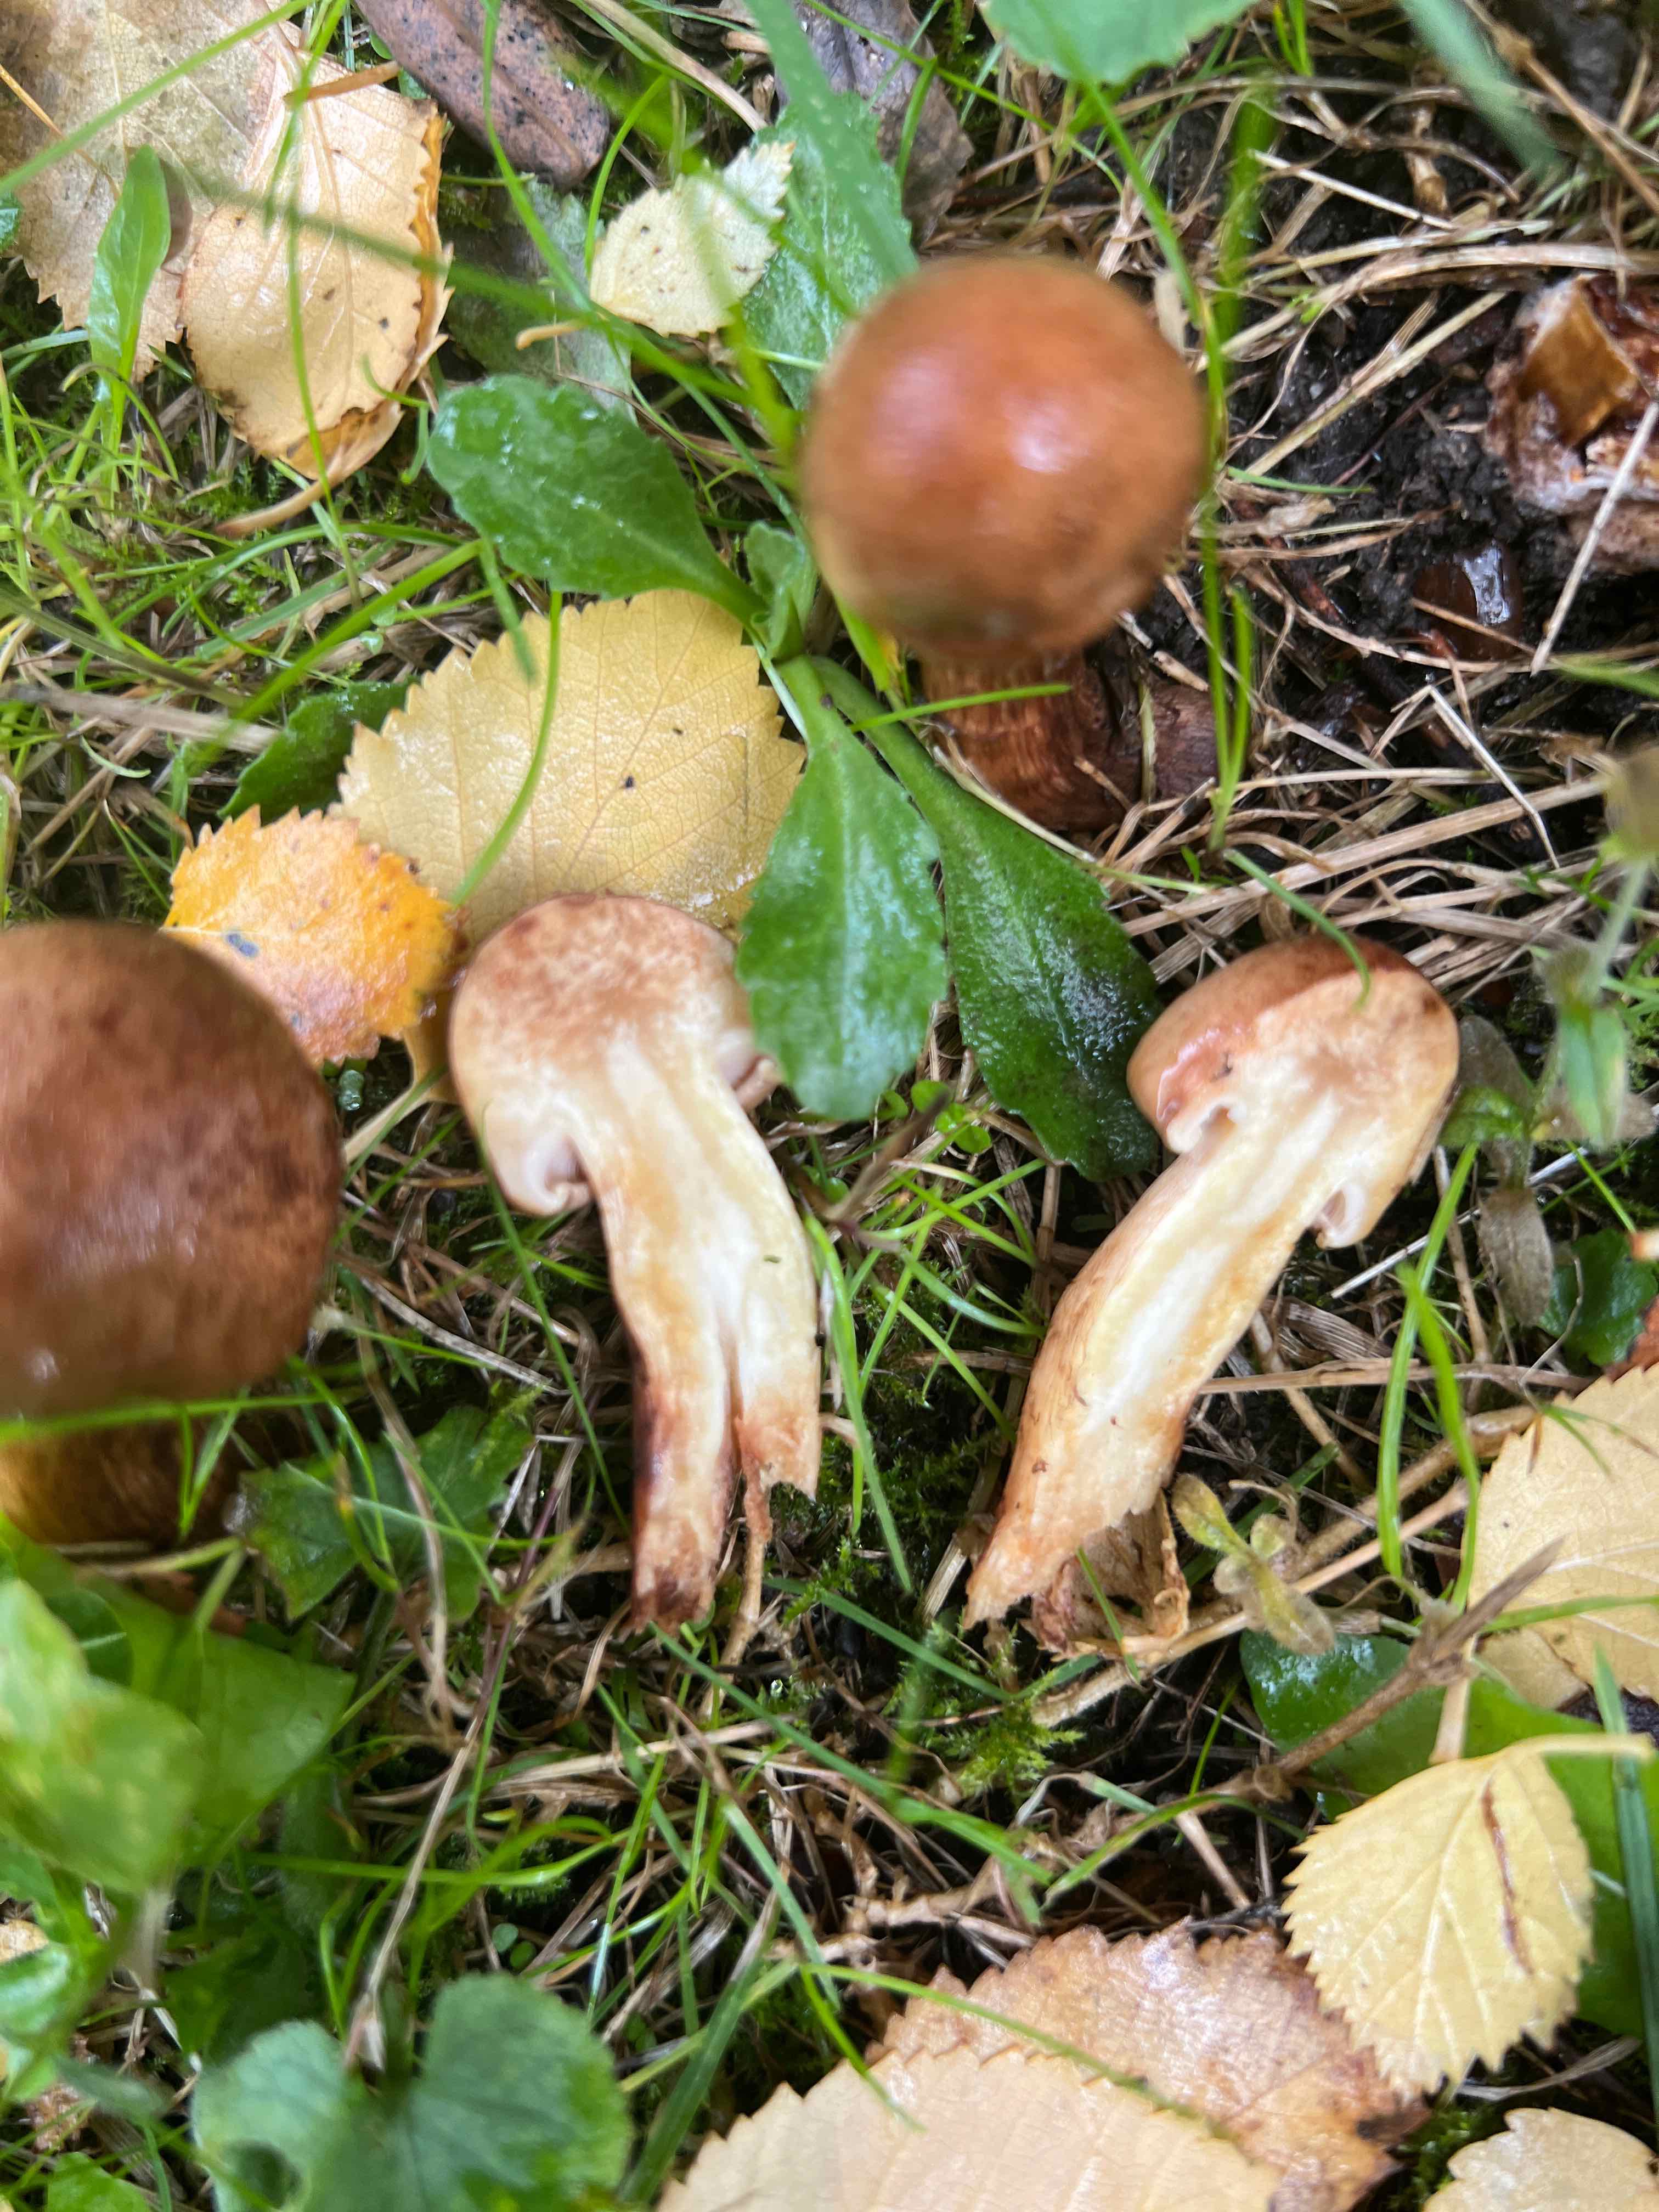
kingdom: Fungi
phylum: Basidiomycota
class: Agaricomycetes
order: Agaricales
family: Tricholomataceae
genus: Tricholoma
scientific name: Tricholoma ustale
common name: sveden ridderhat
